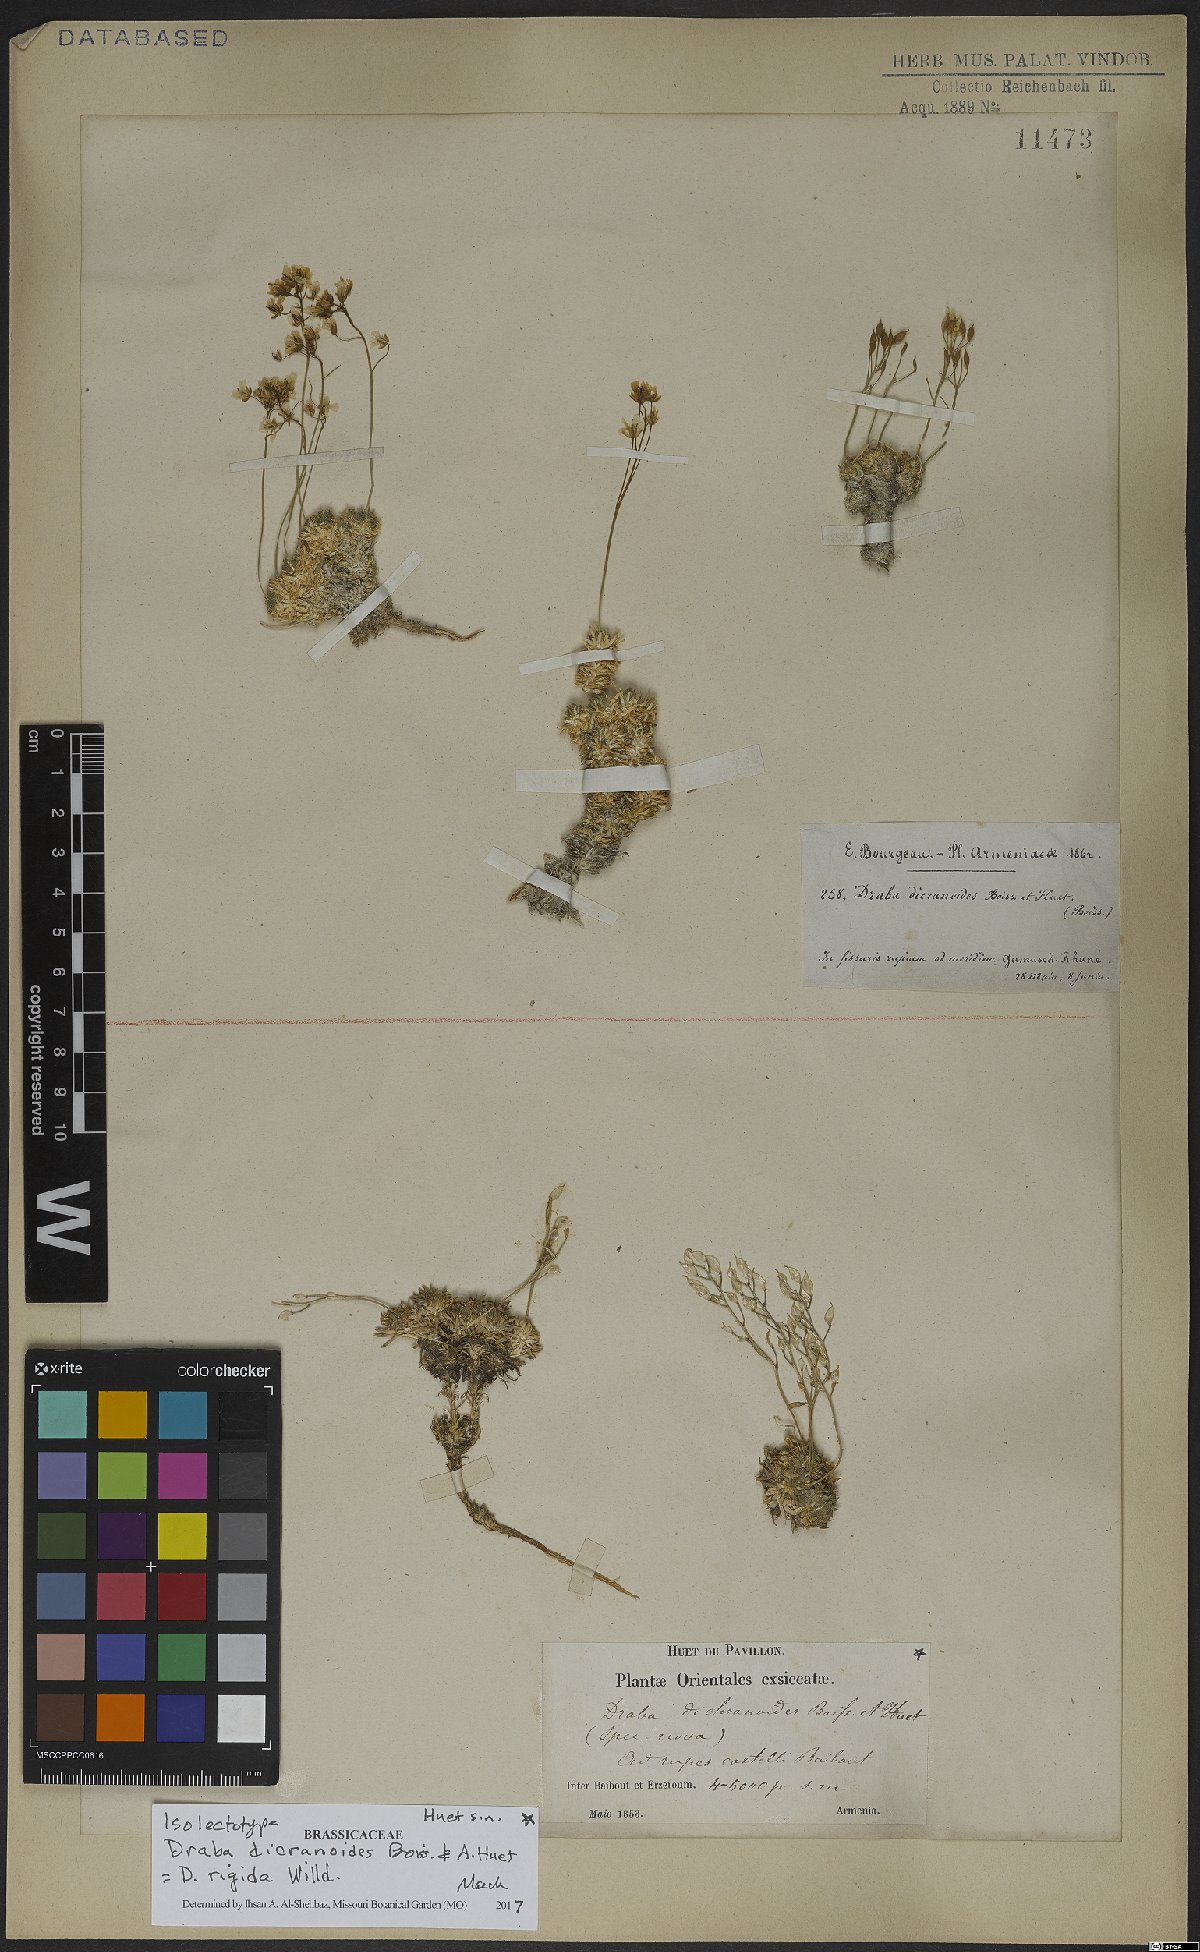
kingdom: Plantae
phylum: Tracheophyta
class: Magnoliopsida
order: Brassicales
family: Brassicaceae
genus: Draba
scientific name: Draba rigida
